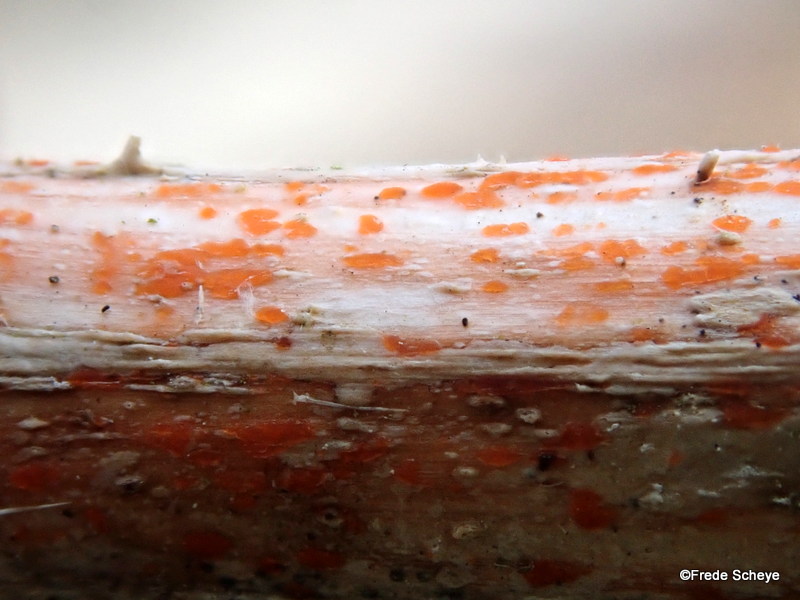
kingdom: Fungi
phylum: Ascomycota
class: Leotiomycetes
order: Helotiales
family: Calloriaceae
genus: Calloria
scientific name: Calloria urticae
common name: nælde-orangeskive
